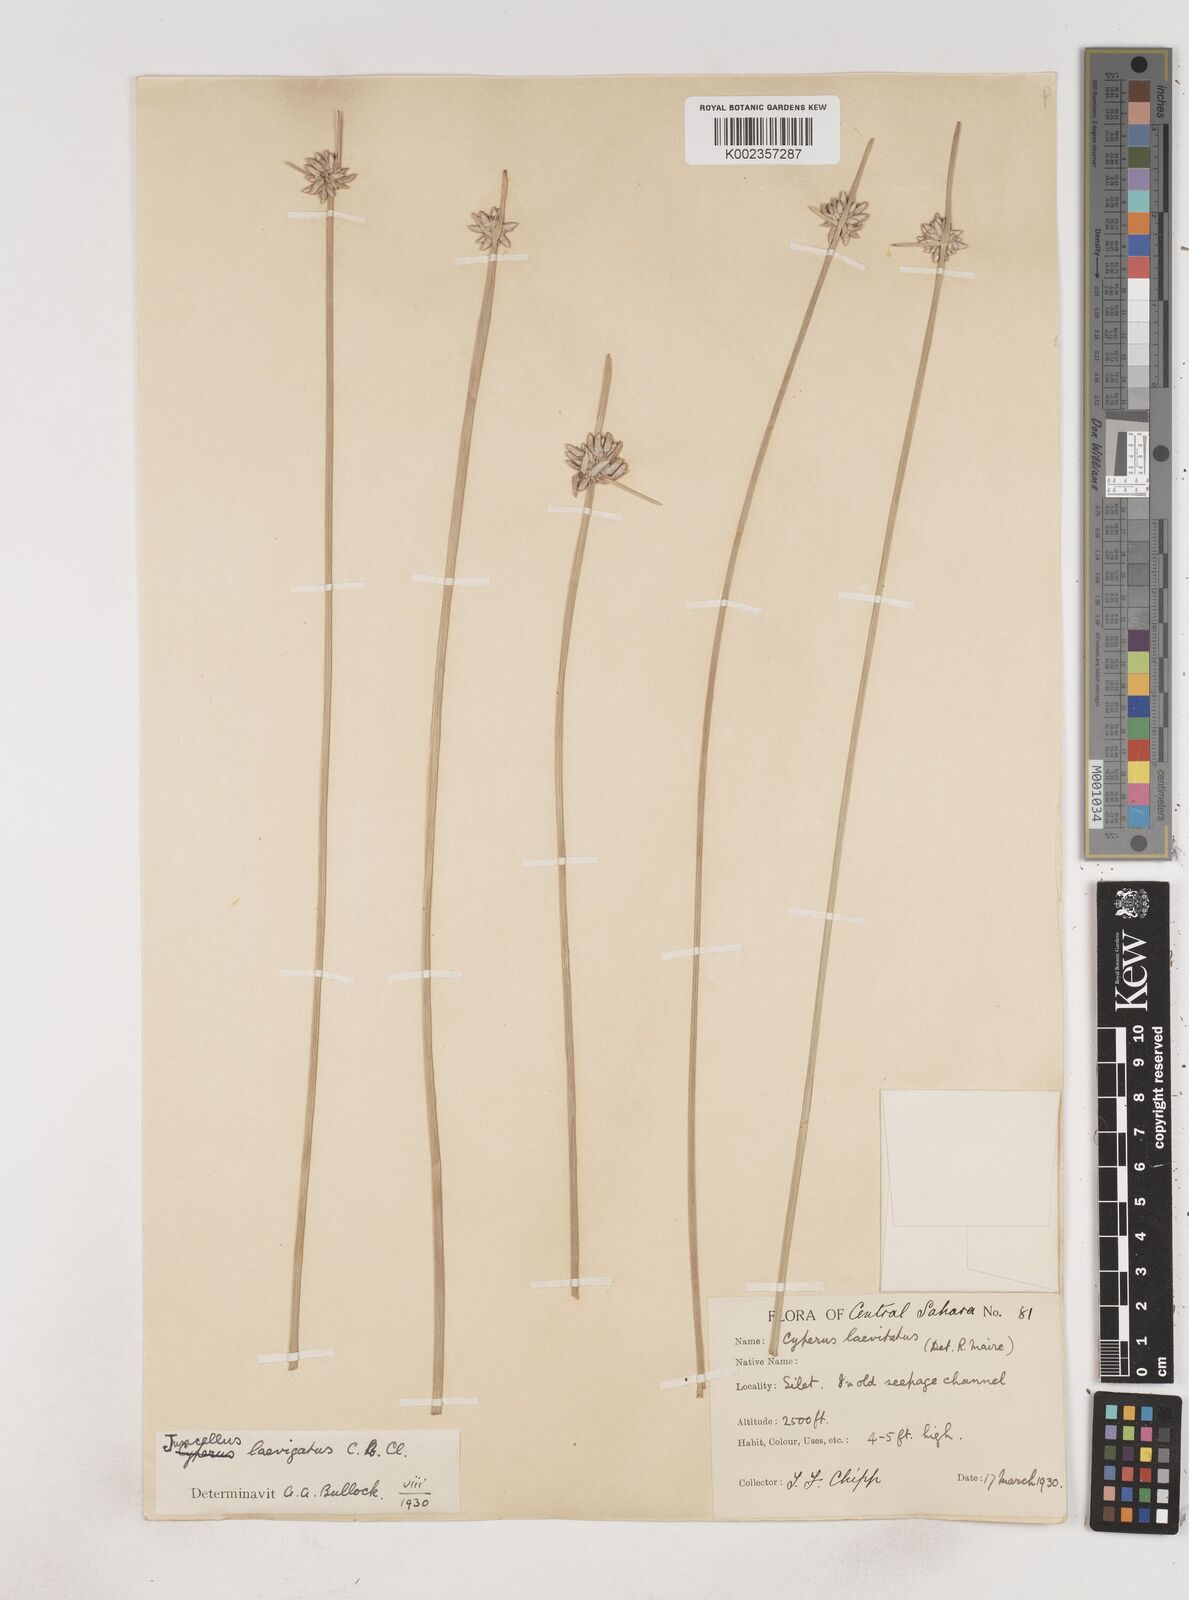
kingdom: Plantae
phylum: Tracheophyta
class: Liliopsida
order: Poales
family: Cyperaceae
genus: Cyperus
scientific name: Cyperus
